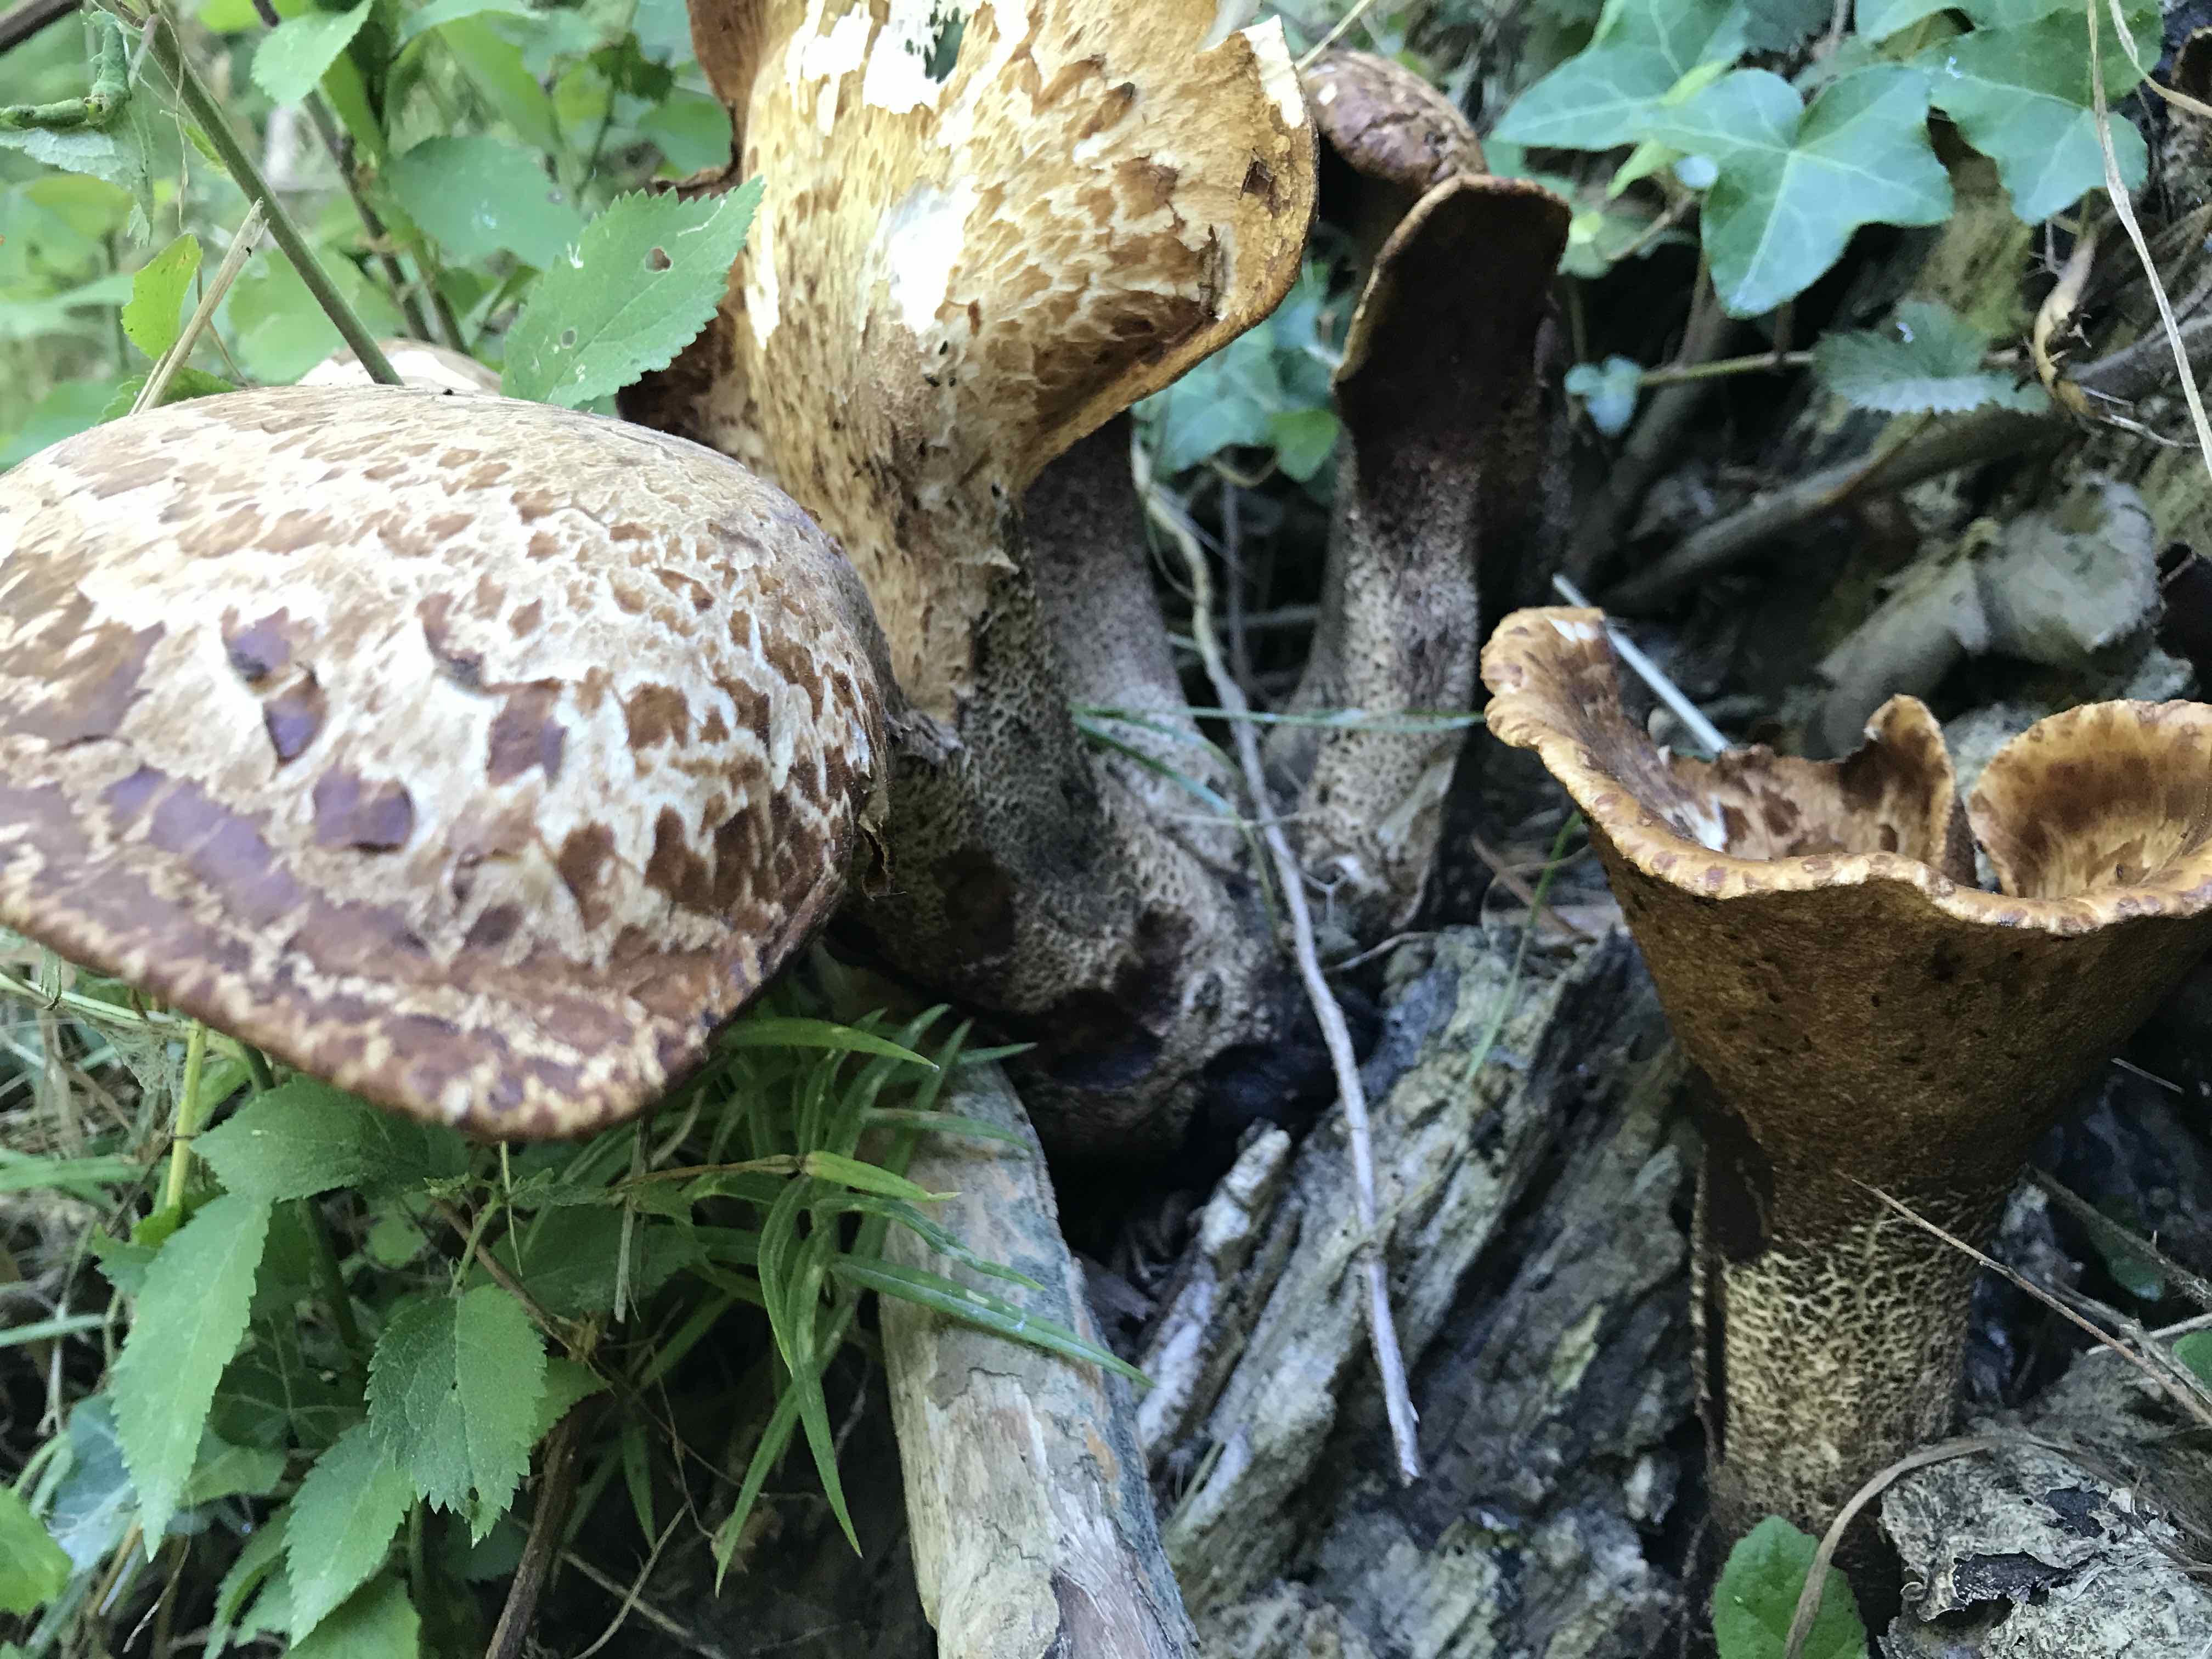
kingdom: Fungi
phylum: Basidiomycota
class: Agaricomycetes
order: Polyporales
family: Polyporaceae
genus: Cerioporus
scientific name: Cerioporus squamosus
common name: skællet stilkporesvamp
